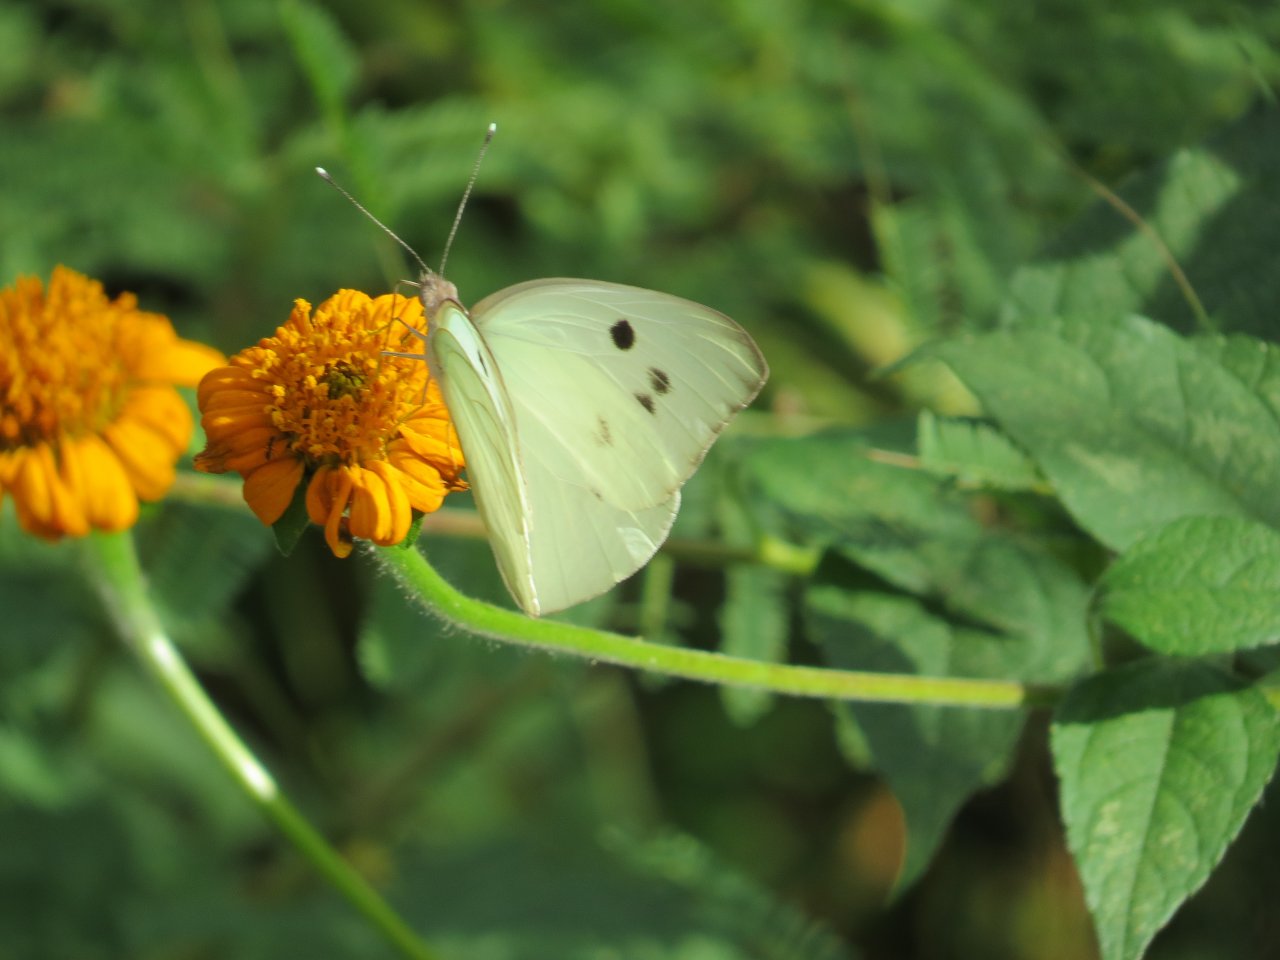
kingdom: Animalia
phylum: Arthropoda
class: Insecta
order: Lepidoptera
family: Pieridae
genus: Ganyra
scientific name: Ganyra josephina
